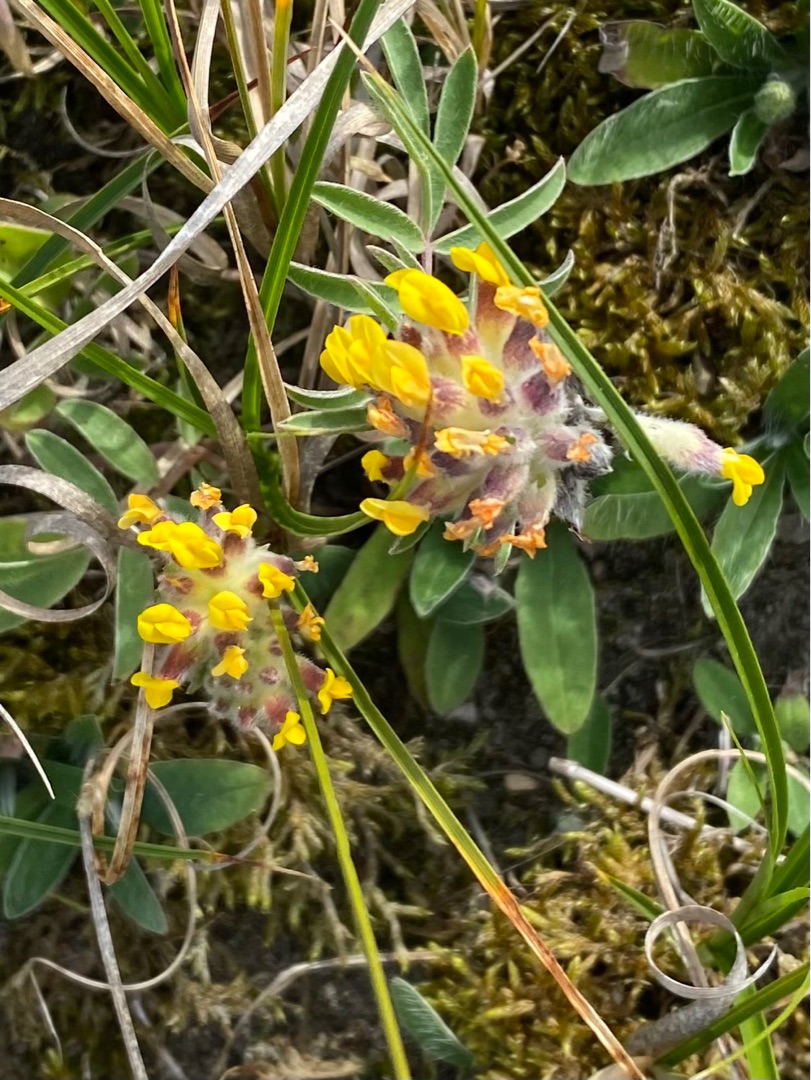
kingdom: Plantae
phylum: Tracheophyta
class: Magnoliopsida
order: Fabales
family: Fabaceae
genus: Anthyllis
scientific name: Anthyllis vulneraria
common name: Rundbælg
